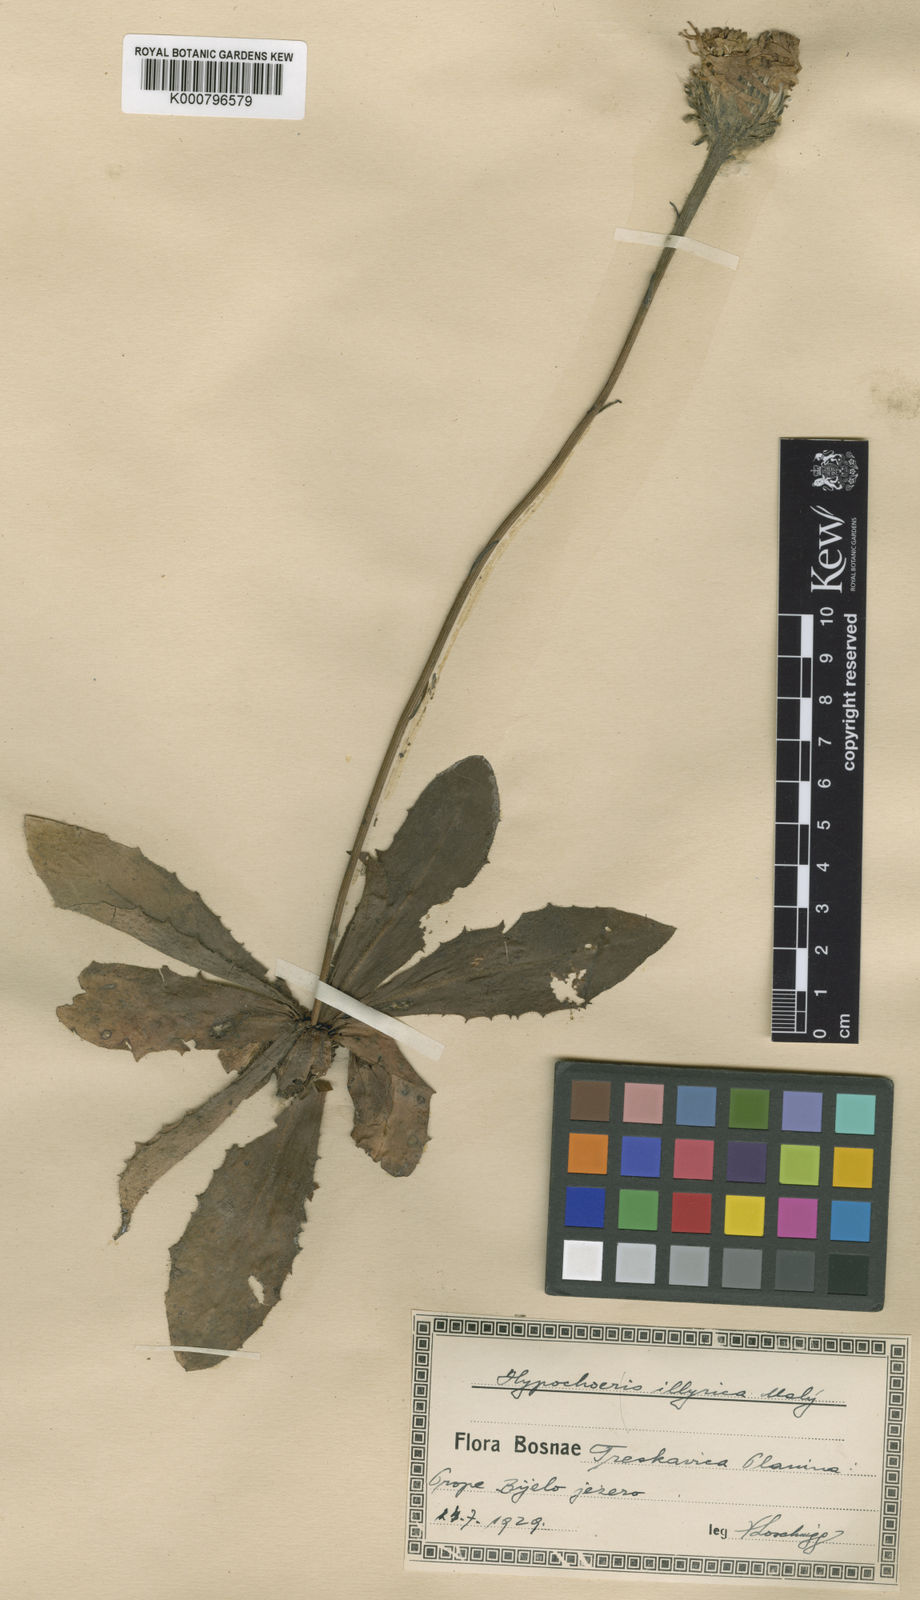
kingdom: Plantae
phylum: Tracheophyta
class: Magnoliopsida
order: Asterales
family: Asteraceae
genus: Hypochaeris
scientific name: Hypochaeris
